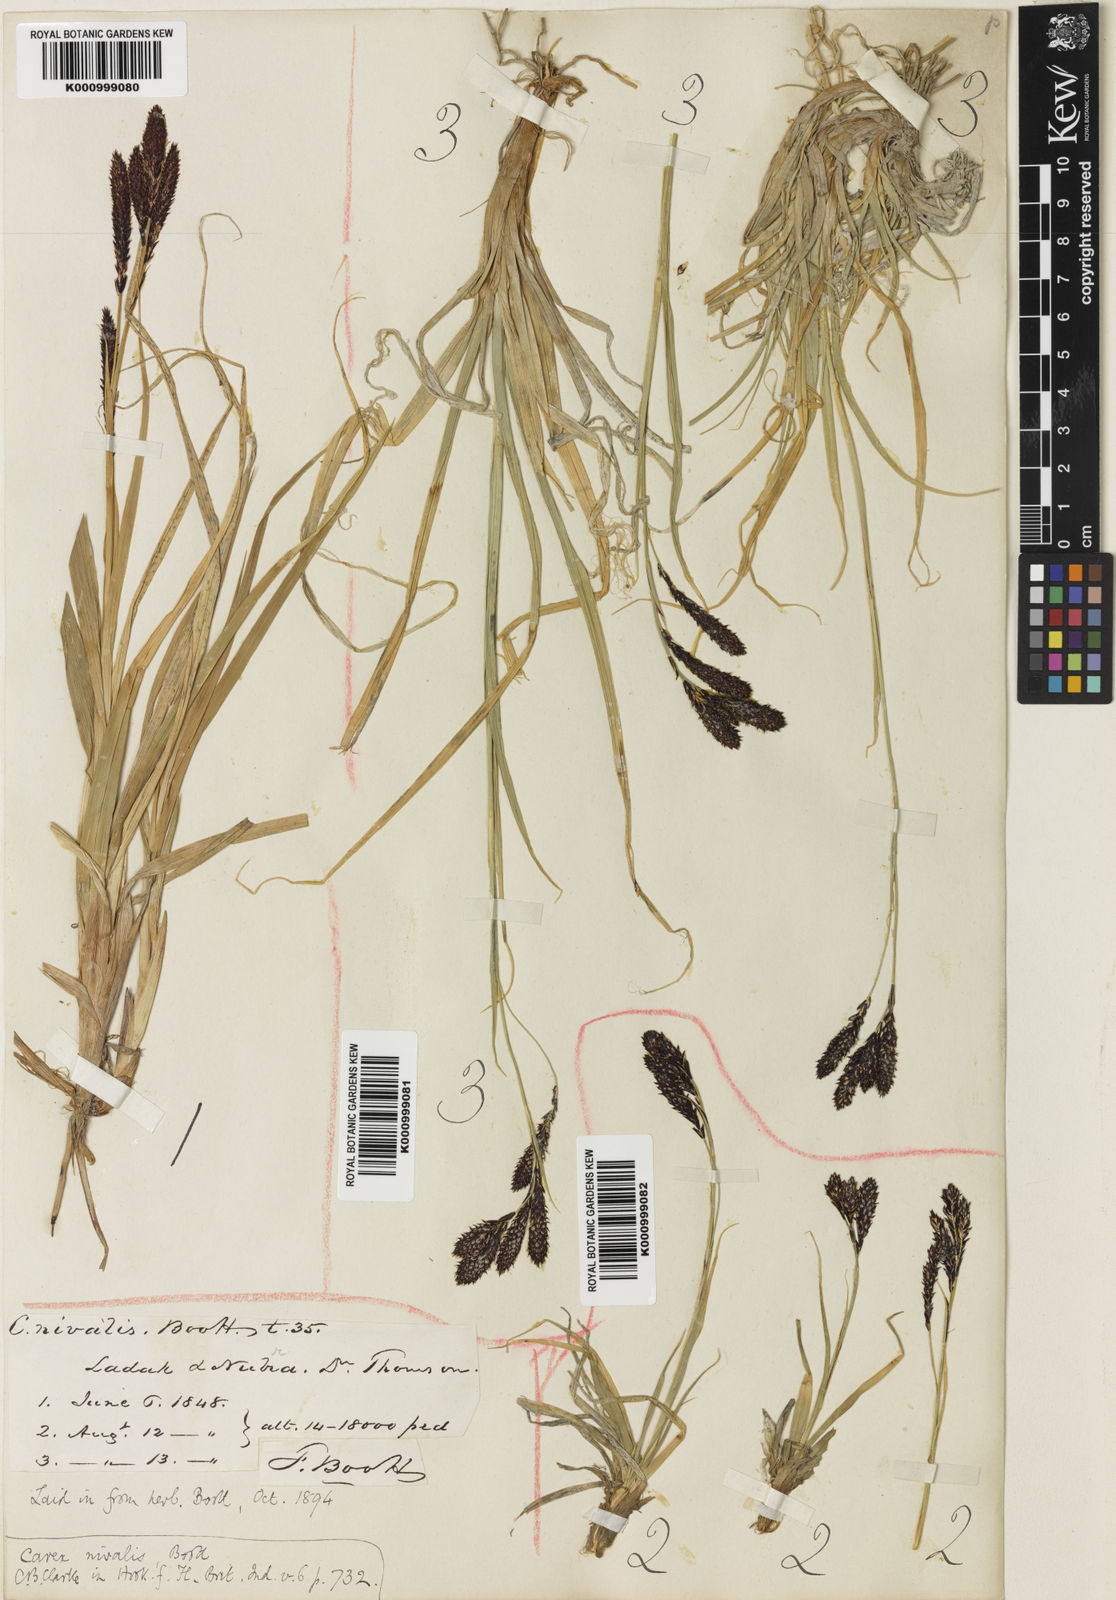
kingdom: Plantae
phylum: Tracheophyta
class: Liliopsida
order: Poales
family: Cyperaceae
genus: Carex
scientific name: Carex nivalis
